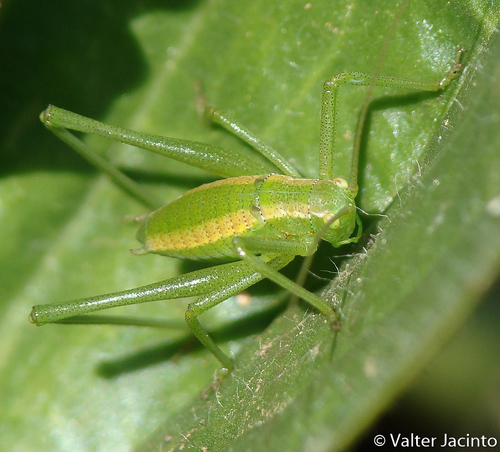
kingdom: Animalia
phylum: Arthropoda
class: Insecta
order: Orthoptera
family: Tettigoniidae
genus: Odontura
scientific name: Odontura glabricauda
